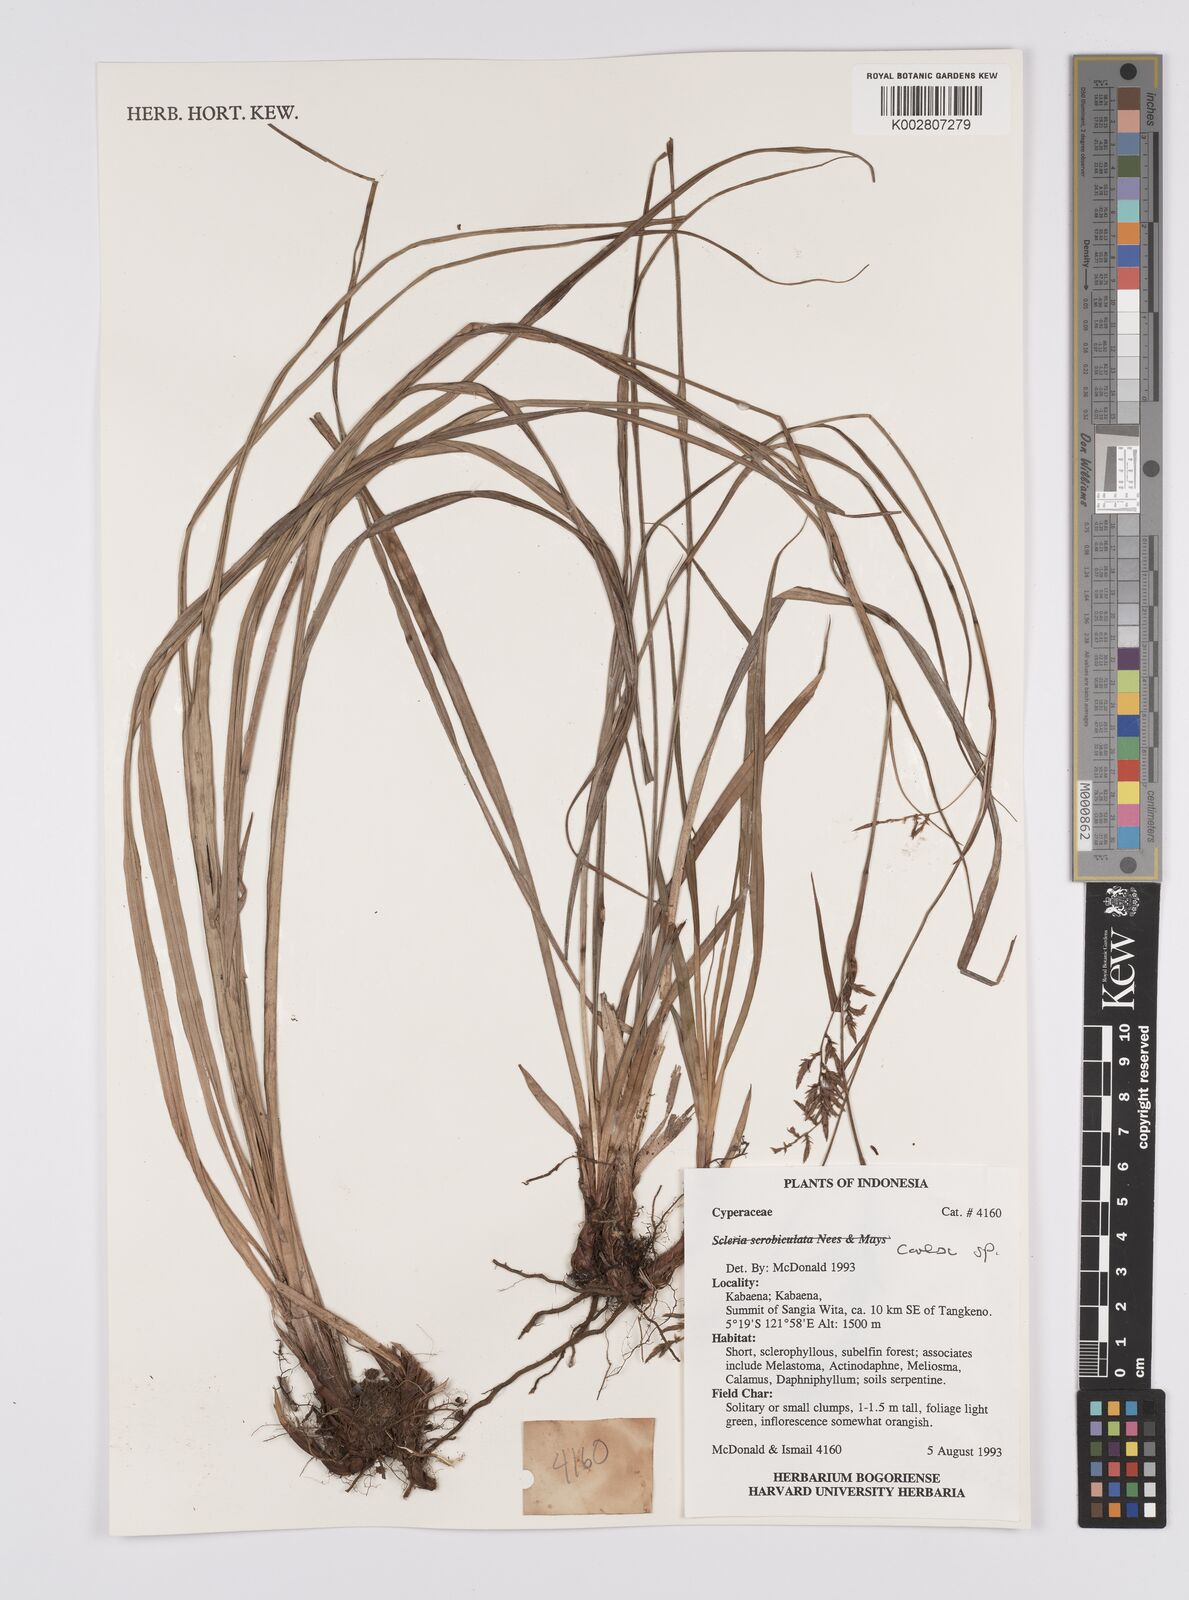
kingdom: Plantae
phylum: Tracheophyta
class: Liliopsida
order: Poales
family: Cyperaceae
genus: Carex
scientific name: Carex
